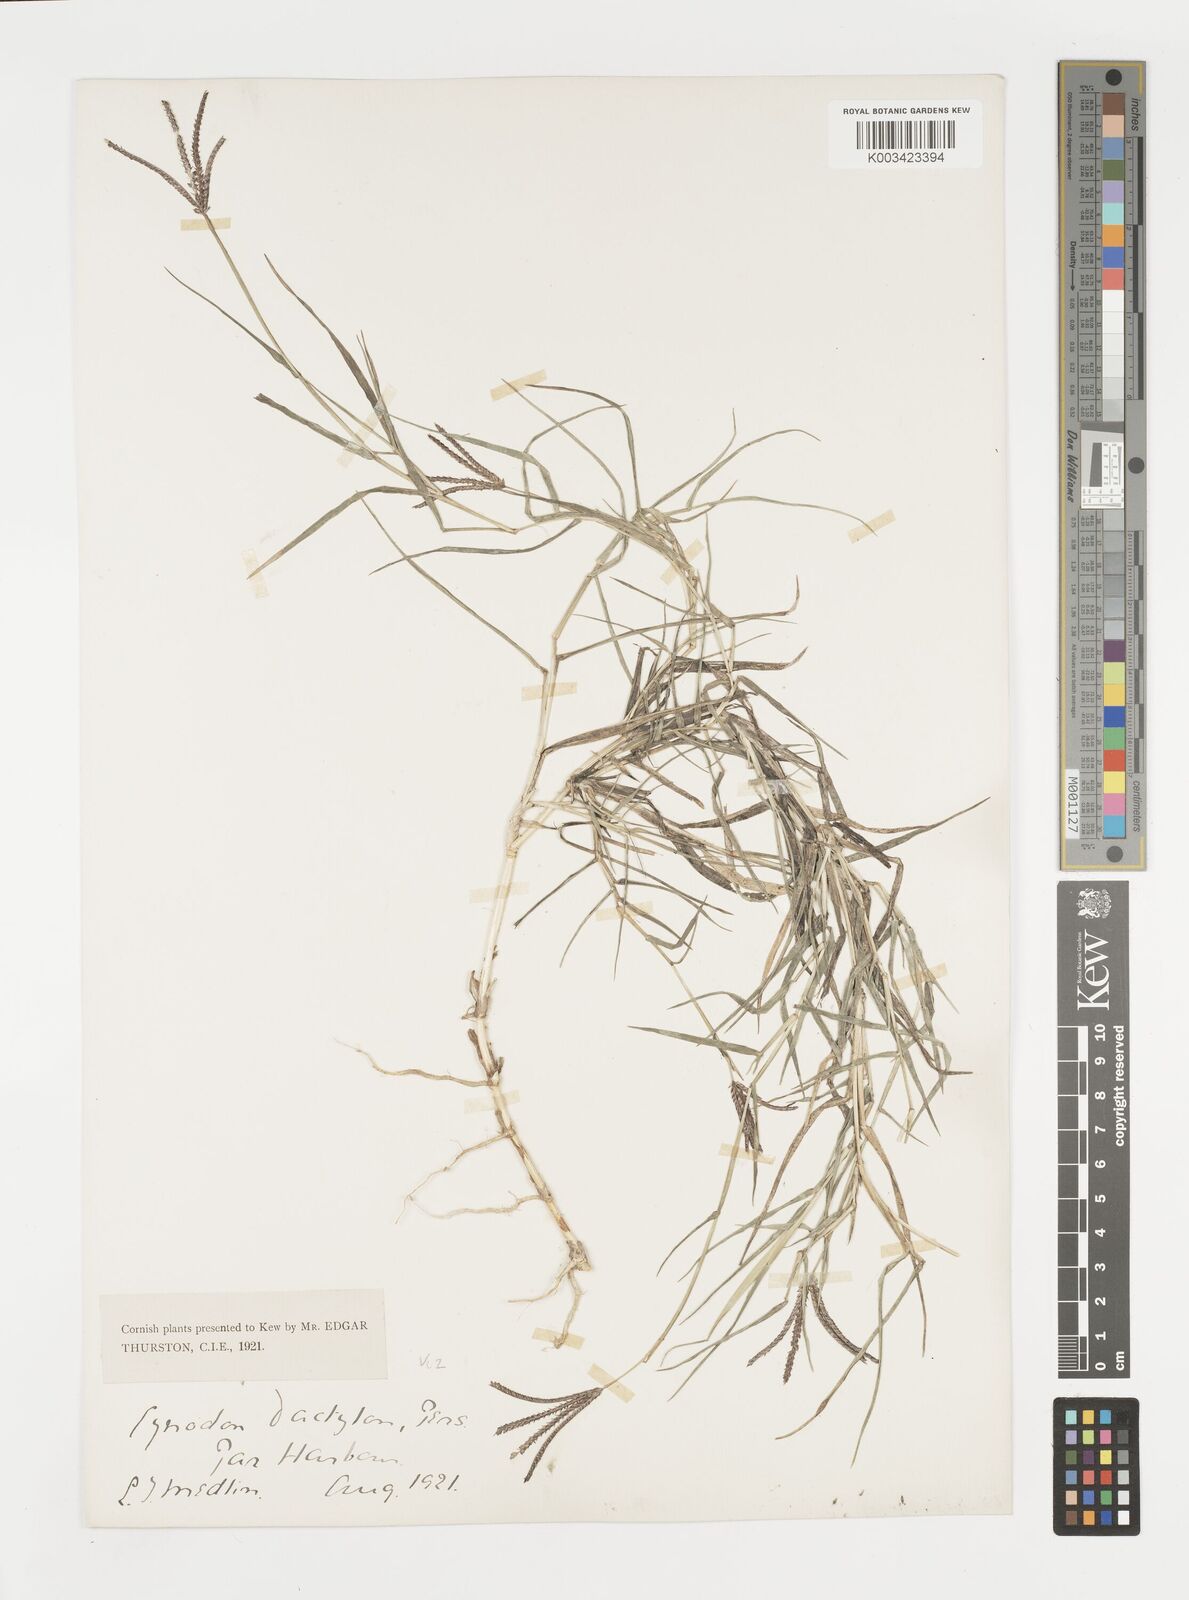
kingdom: Plantae
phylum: Tracheophyta
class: Liliopsida
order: Poales
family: Poaceae
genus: Cynodon
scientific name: Cynodon dactylon
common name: Bermuda grass
